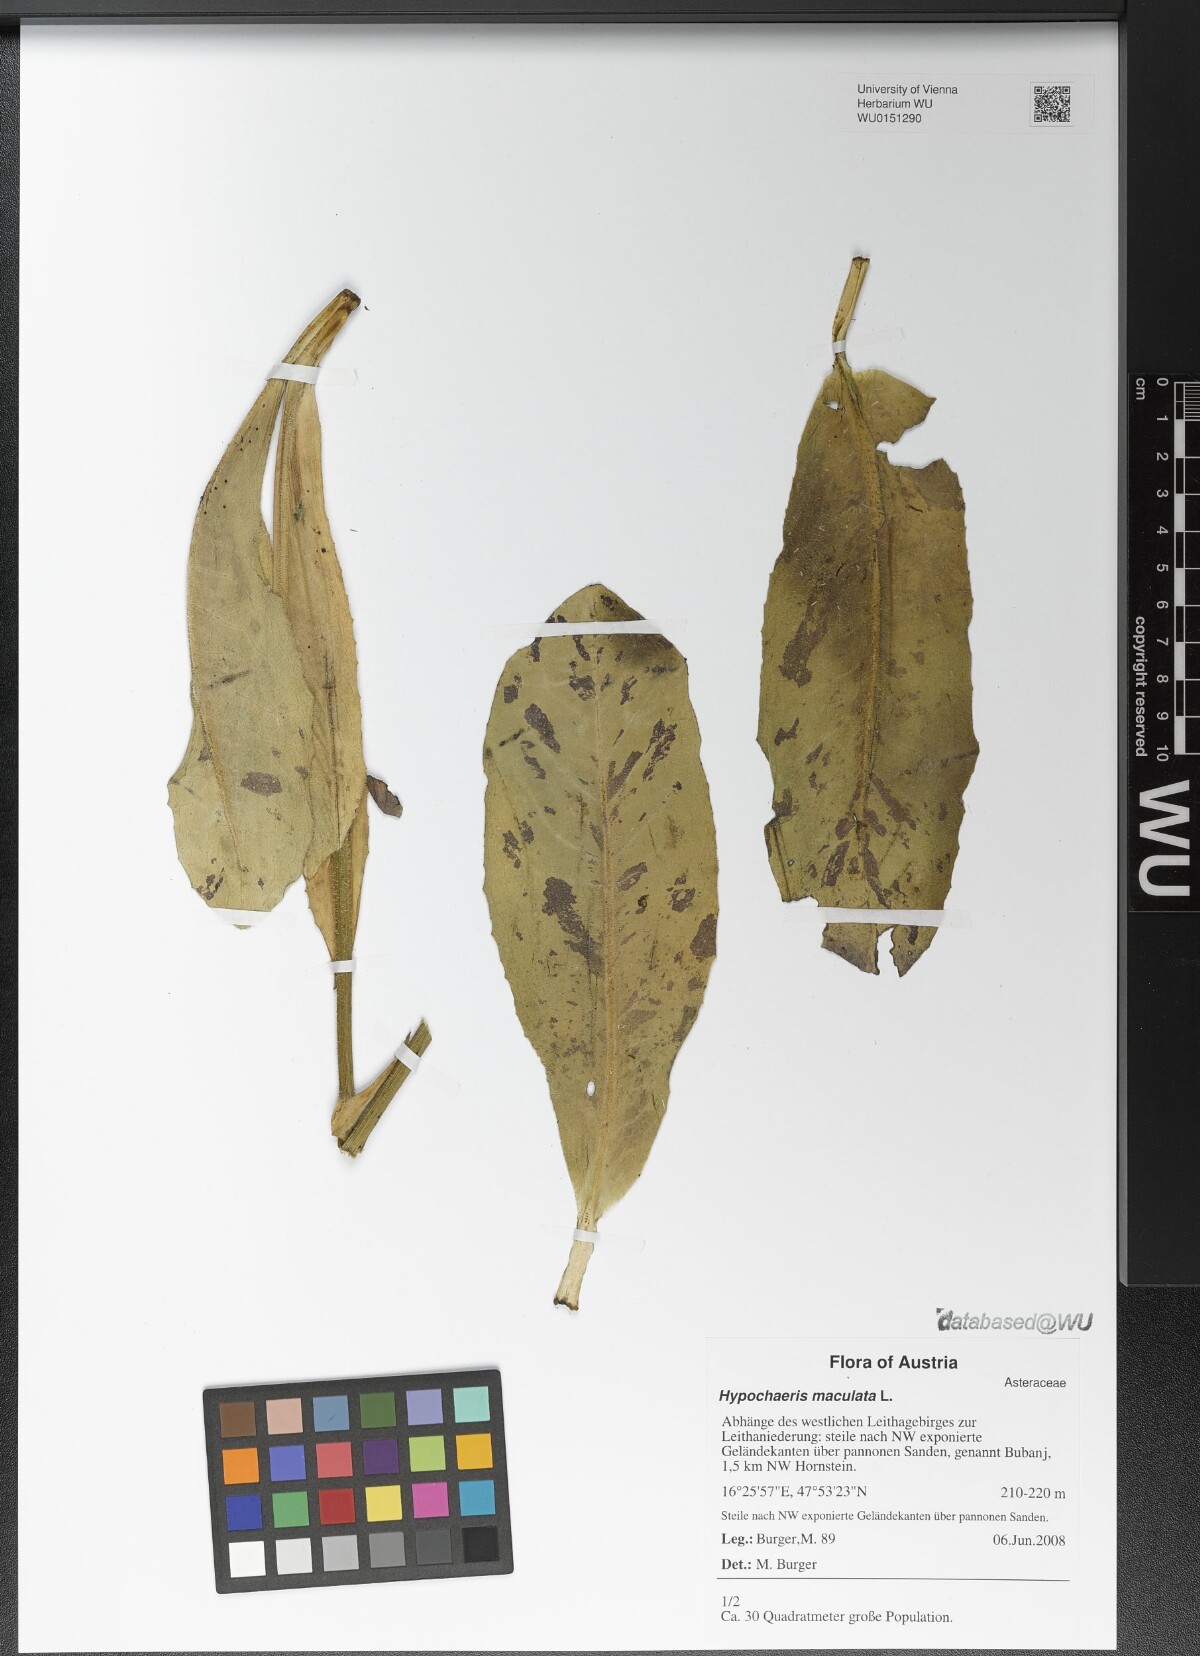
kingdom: Plantae
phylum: Tracheophyta
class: Magnoliopsida
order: Asterales
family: Asteraceae
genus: Trommsdorffia
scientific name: Trommsdorffia maculata
